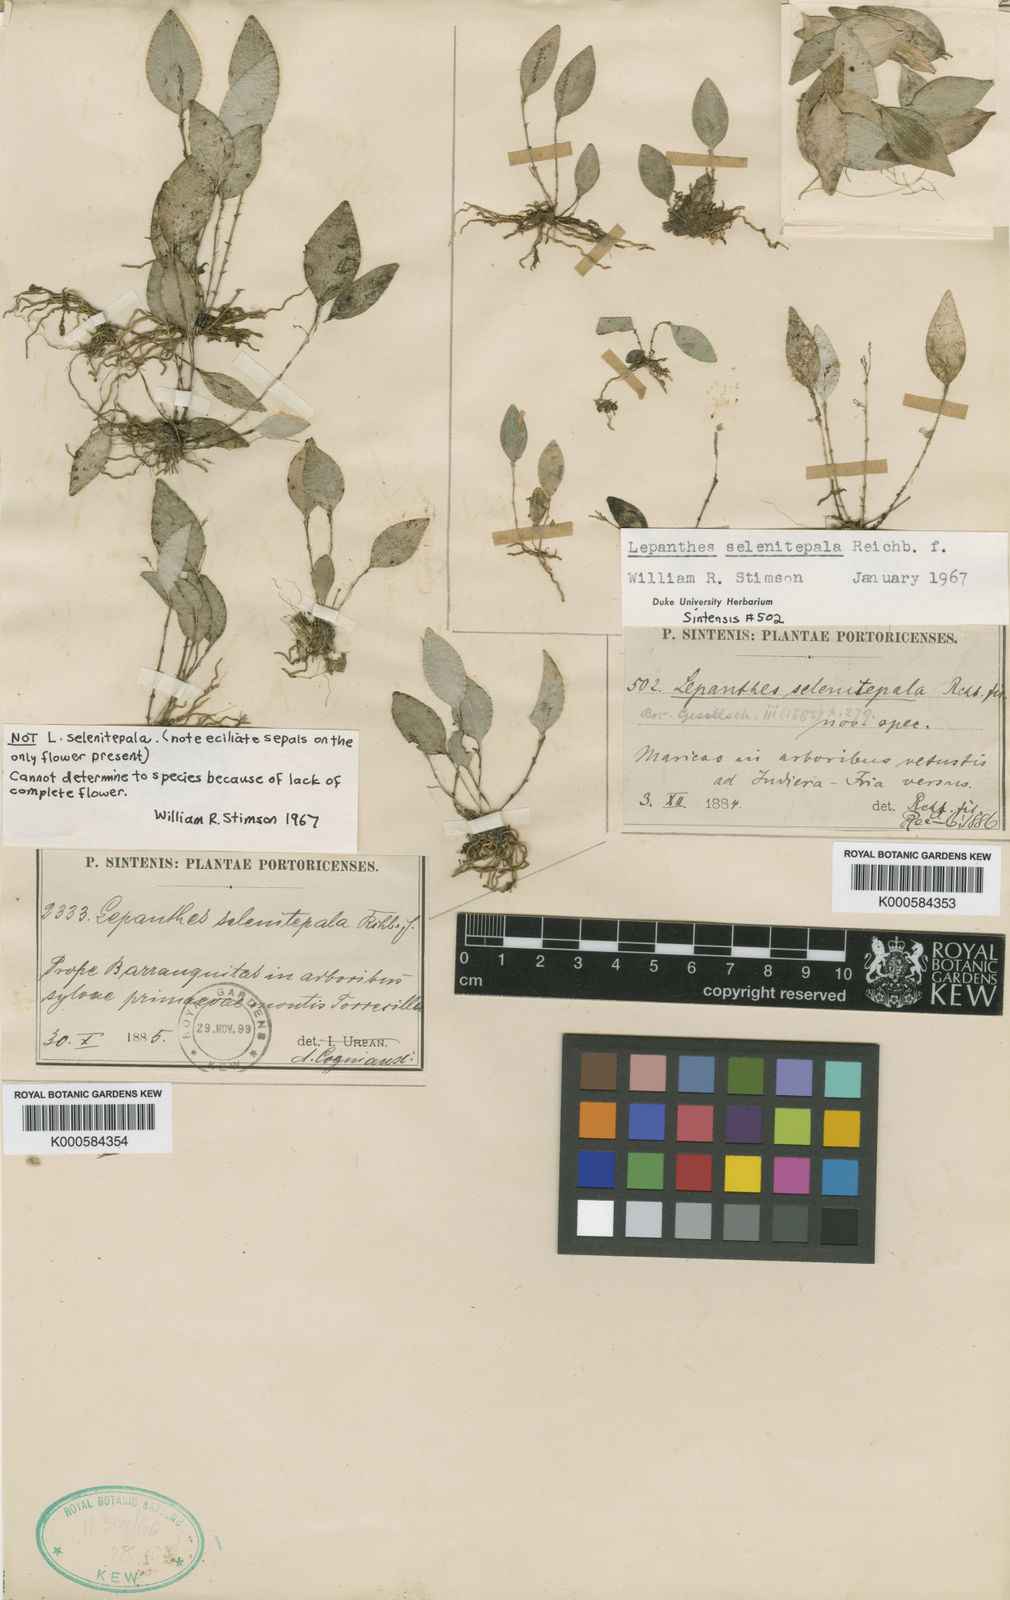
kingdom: Plantae
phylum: Tracheophyta
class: Liliopsida
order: Asparagales
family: Orchidaceae
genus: Lepanthes
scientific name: Lepanthes selenitepala
